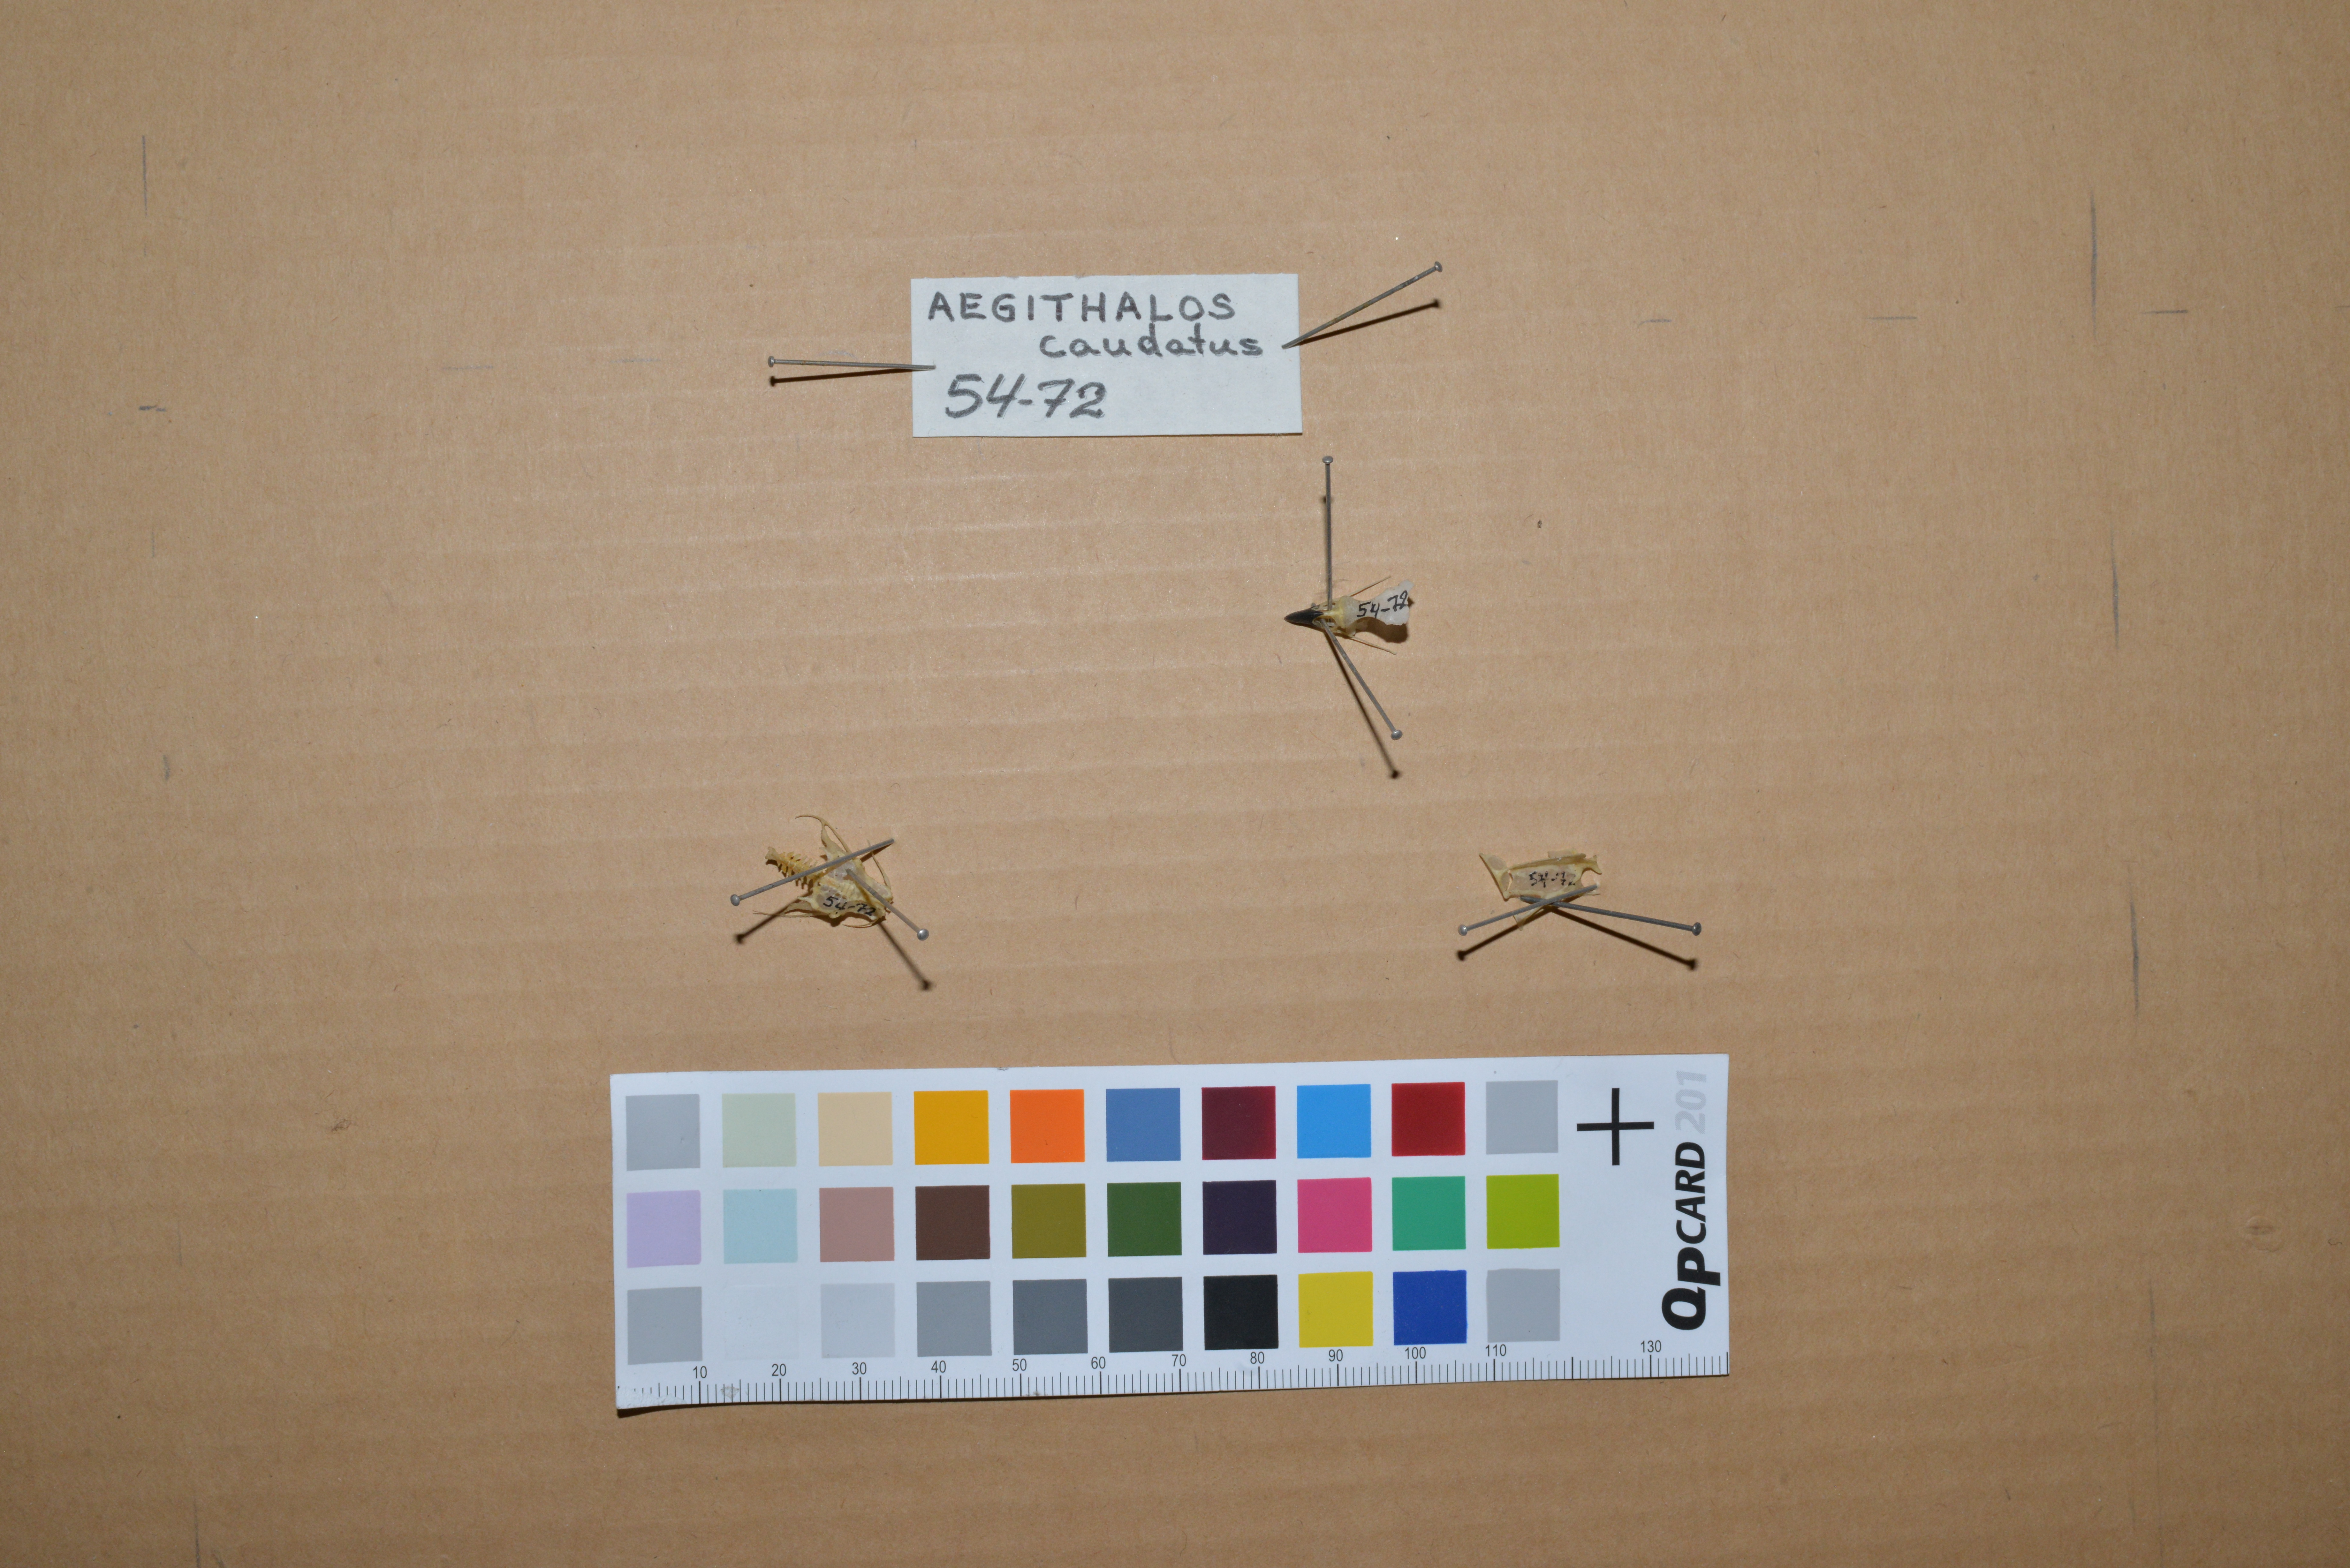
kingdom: Animalia
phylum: Chordata
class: Aves
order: Passeriformes
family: Aegithalidae
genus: Aegithalos
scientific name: Aegithalos caudatus
